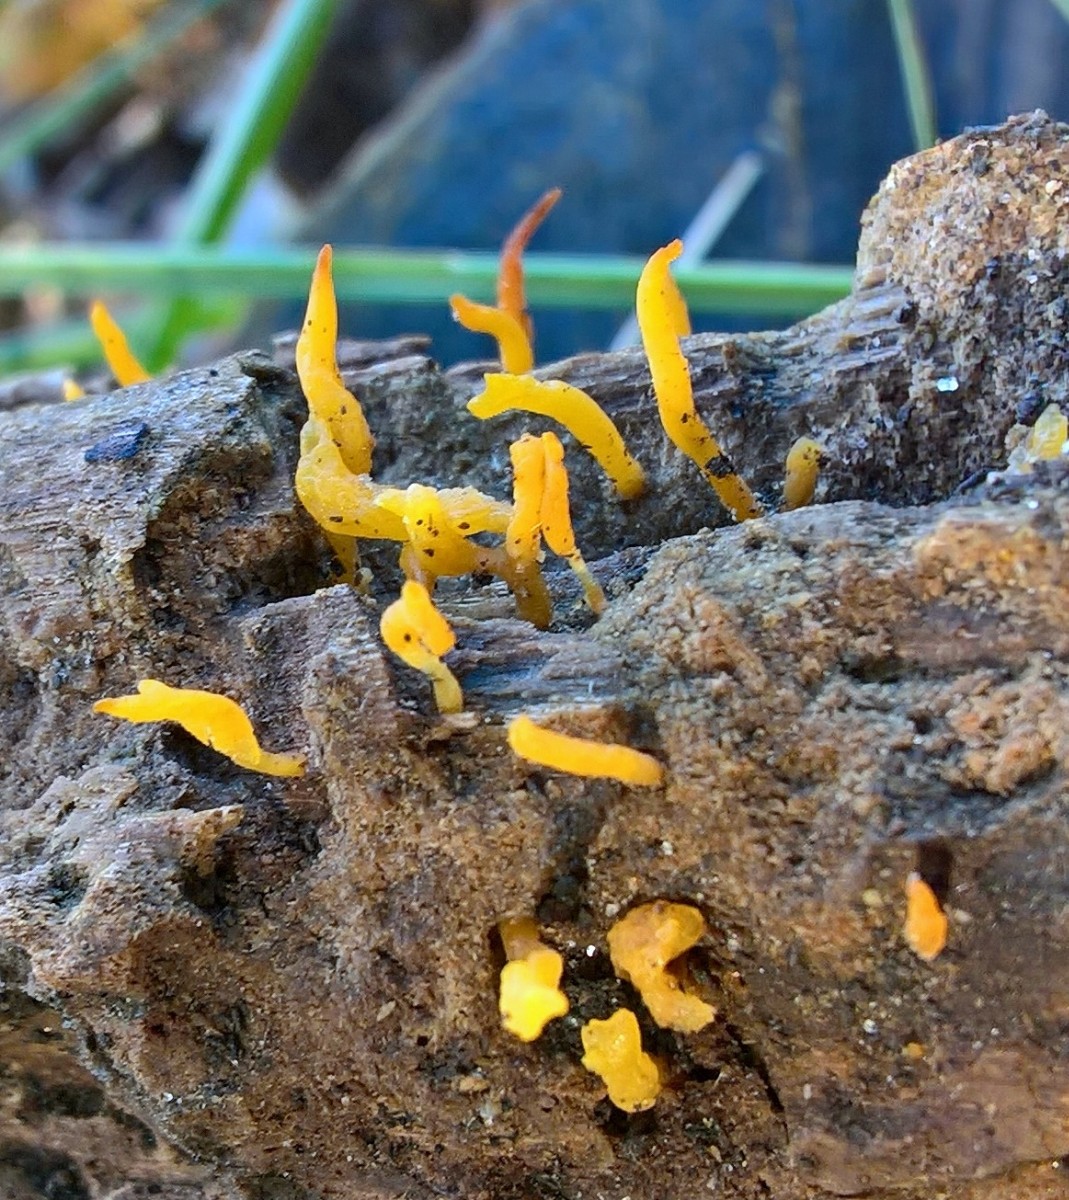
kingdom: Fungi
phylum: Basidiomycota
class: Dacrymycetes
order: Dacrymycetales
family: Dacrymycetaceae
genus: Calocera
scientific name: Calocera cornea
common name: liden guldgaffel
